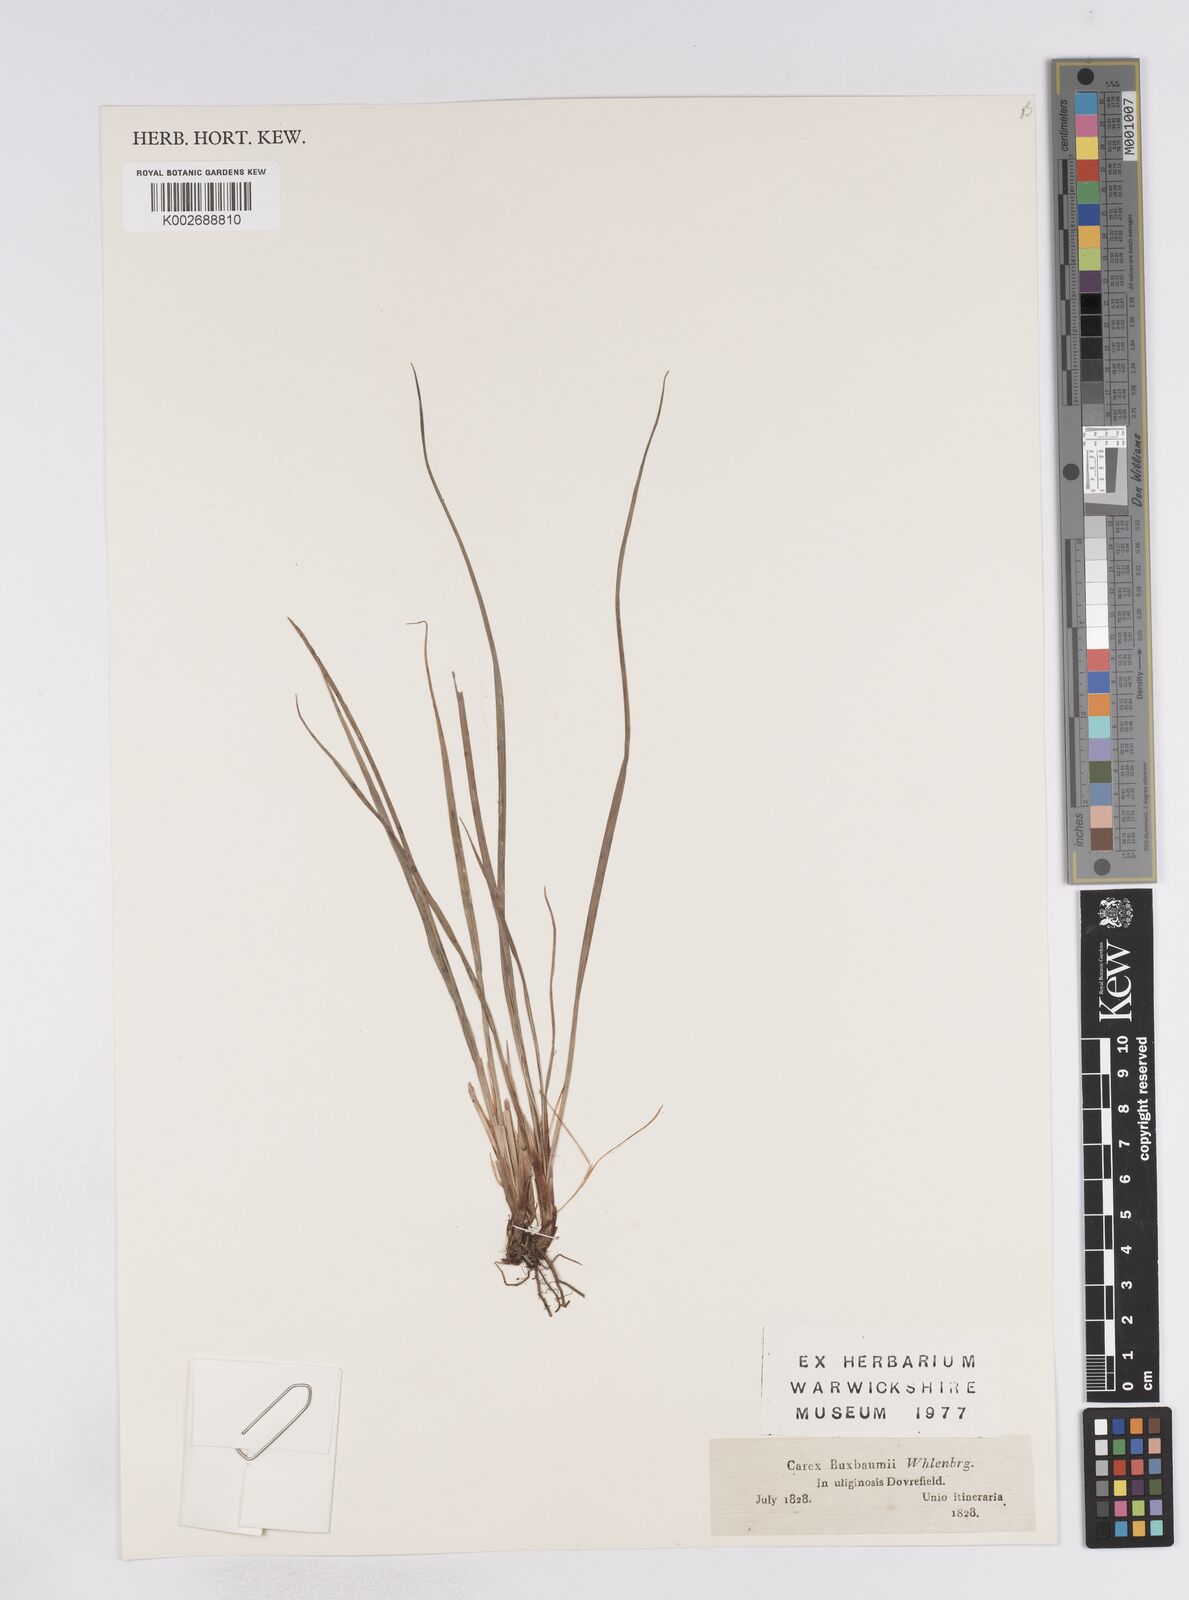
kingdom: Plantae
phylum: Tracheophyta
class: Liliopsida
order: Poales
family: Cyperaceae
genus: Carex
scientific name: Carex buxbaumii
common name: Club sedge
